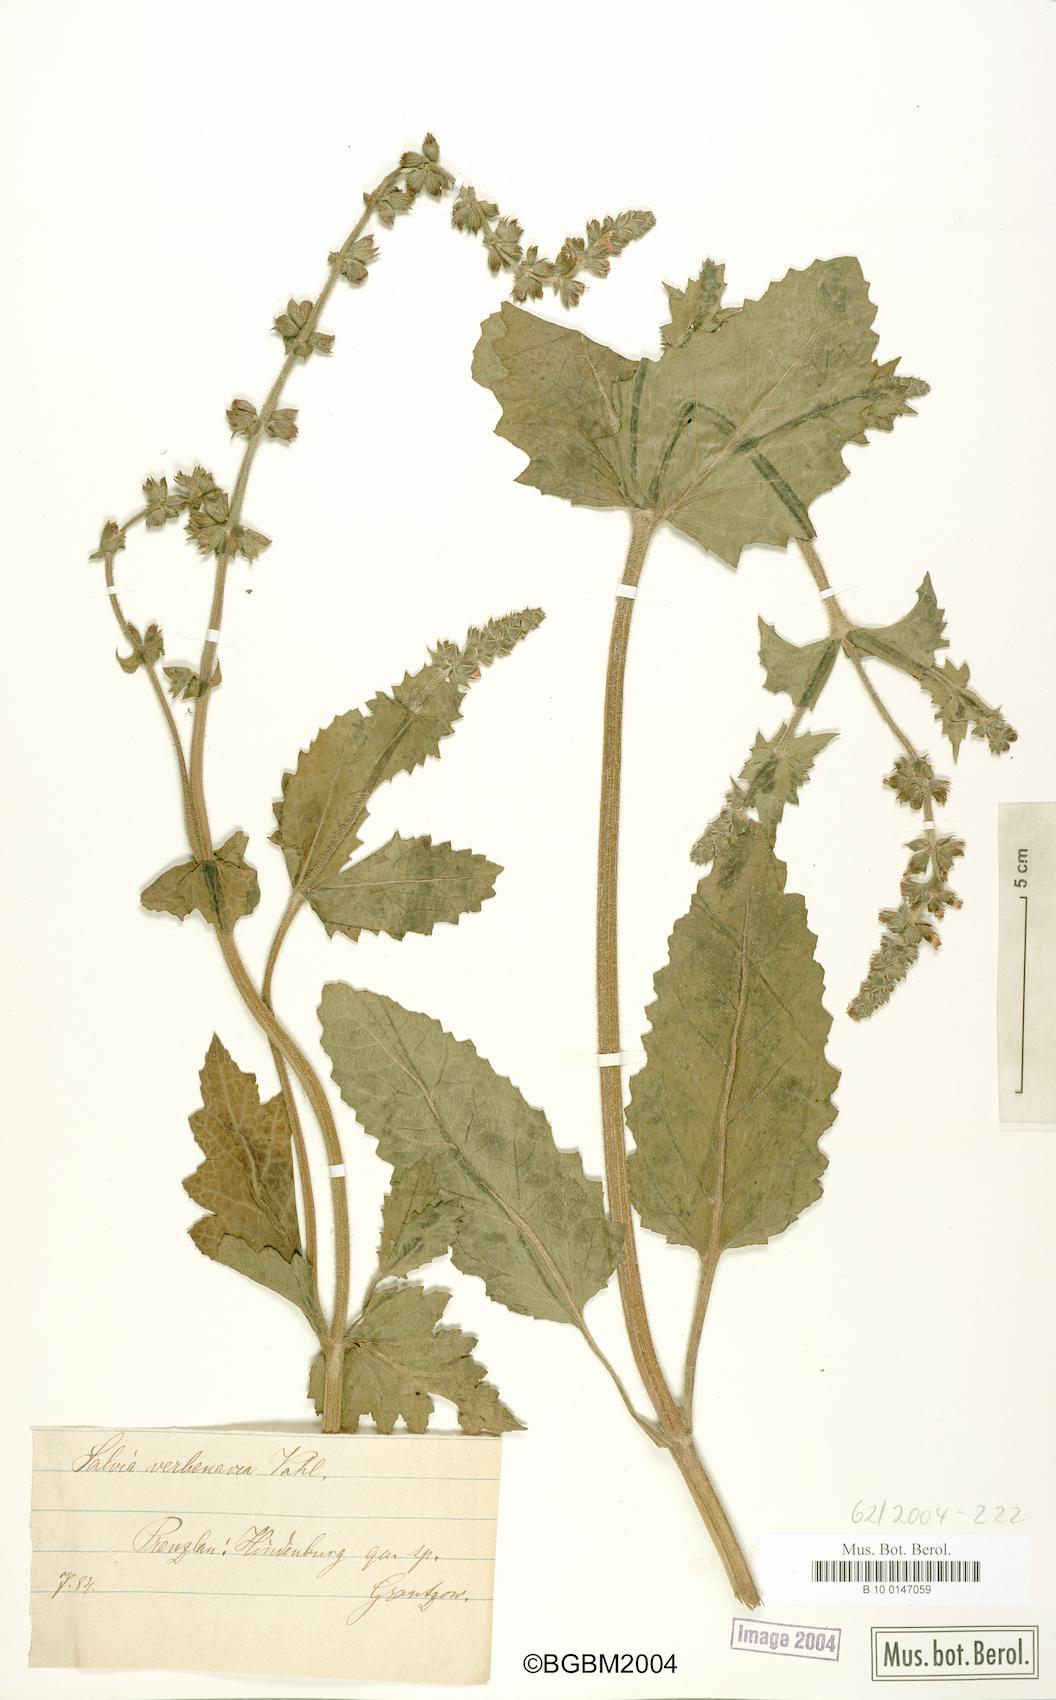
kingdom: Plantae
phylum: Tracheophyta
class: Magnoliopsida
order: Lamiales
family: Lamiaceae
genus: Salvia
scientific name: Salvia verbenaca
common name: Wild clary
